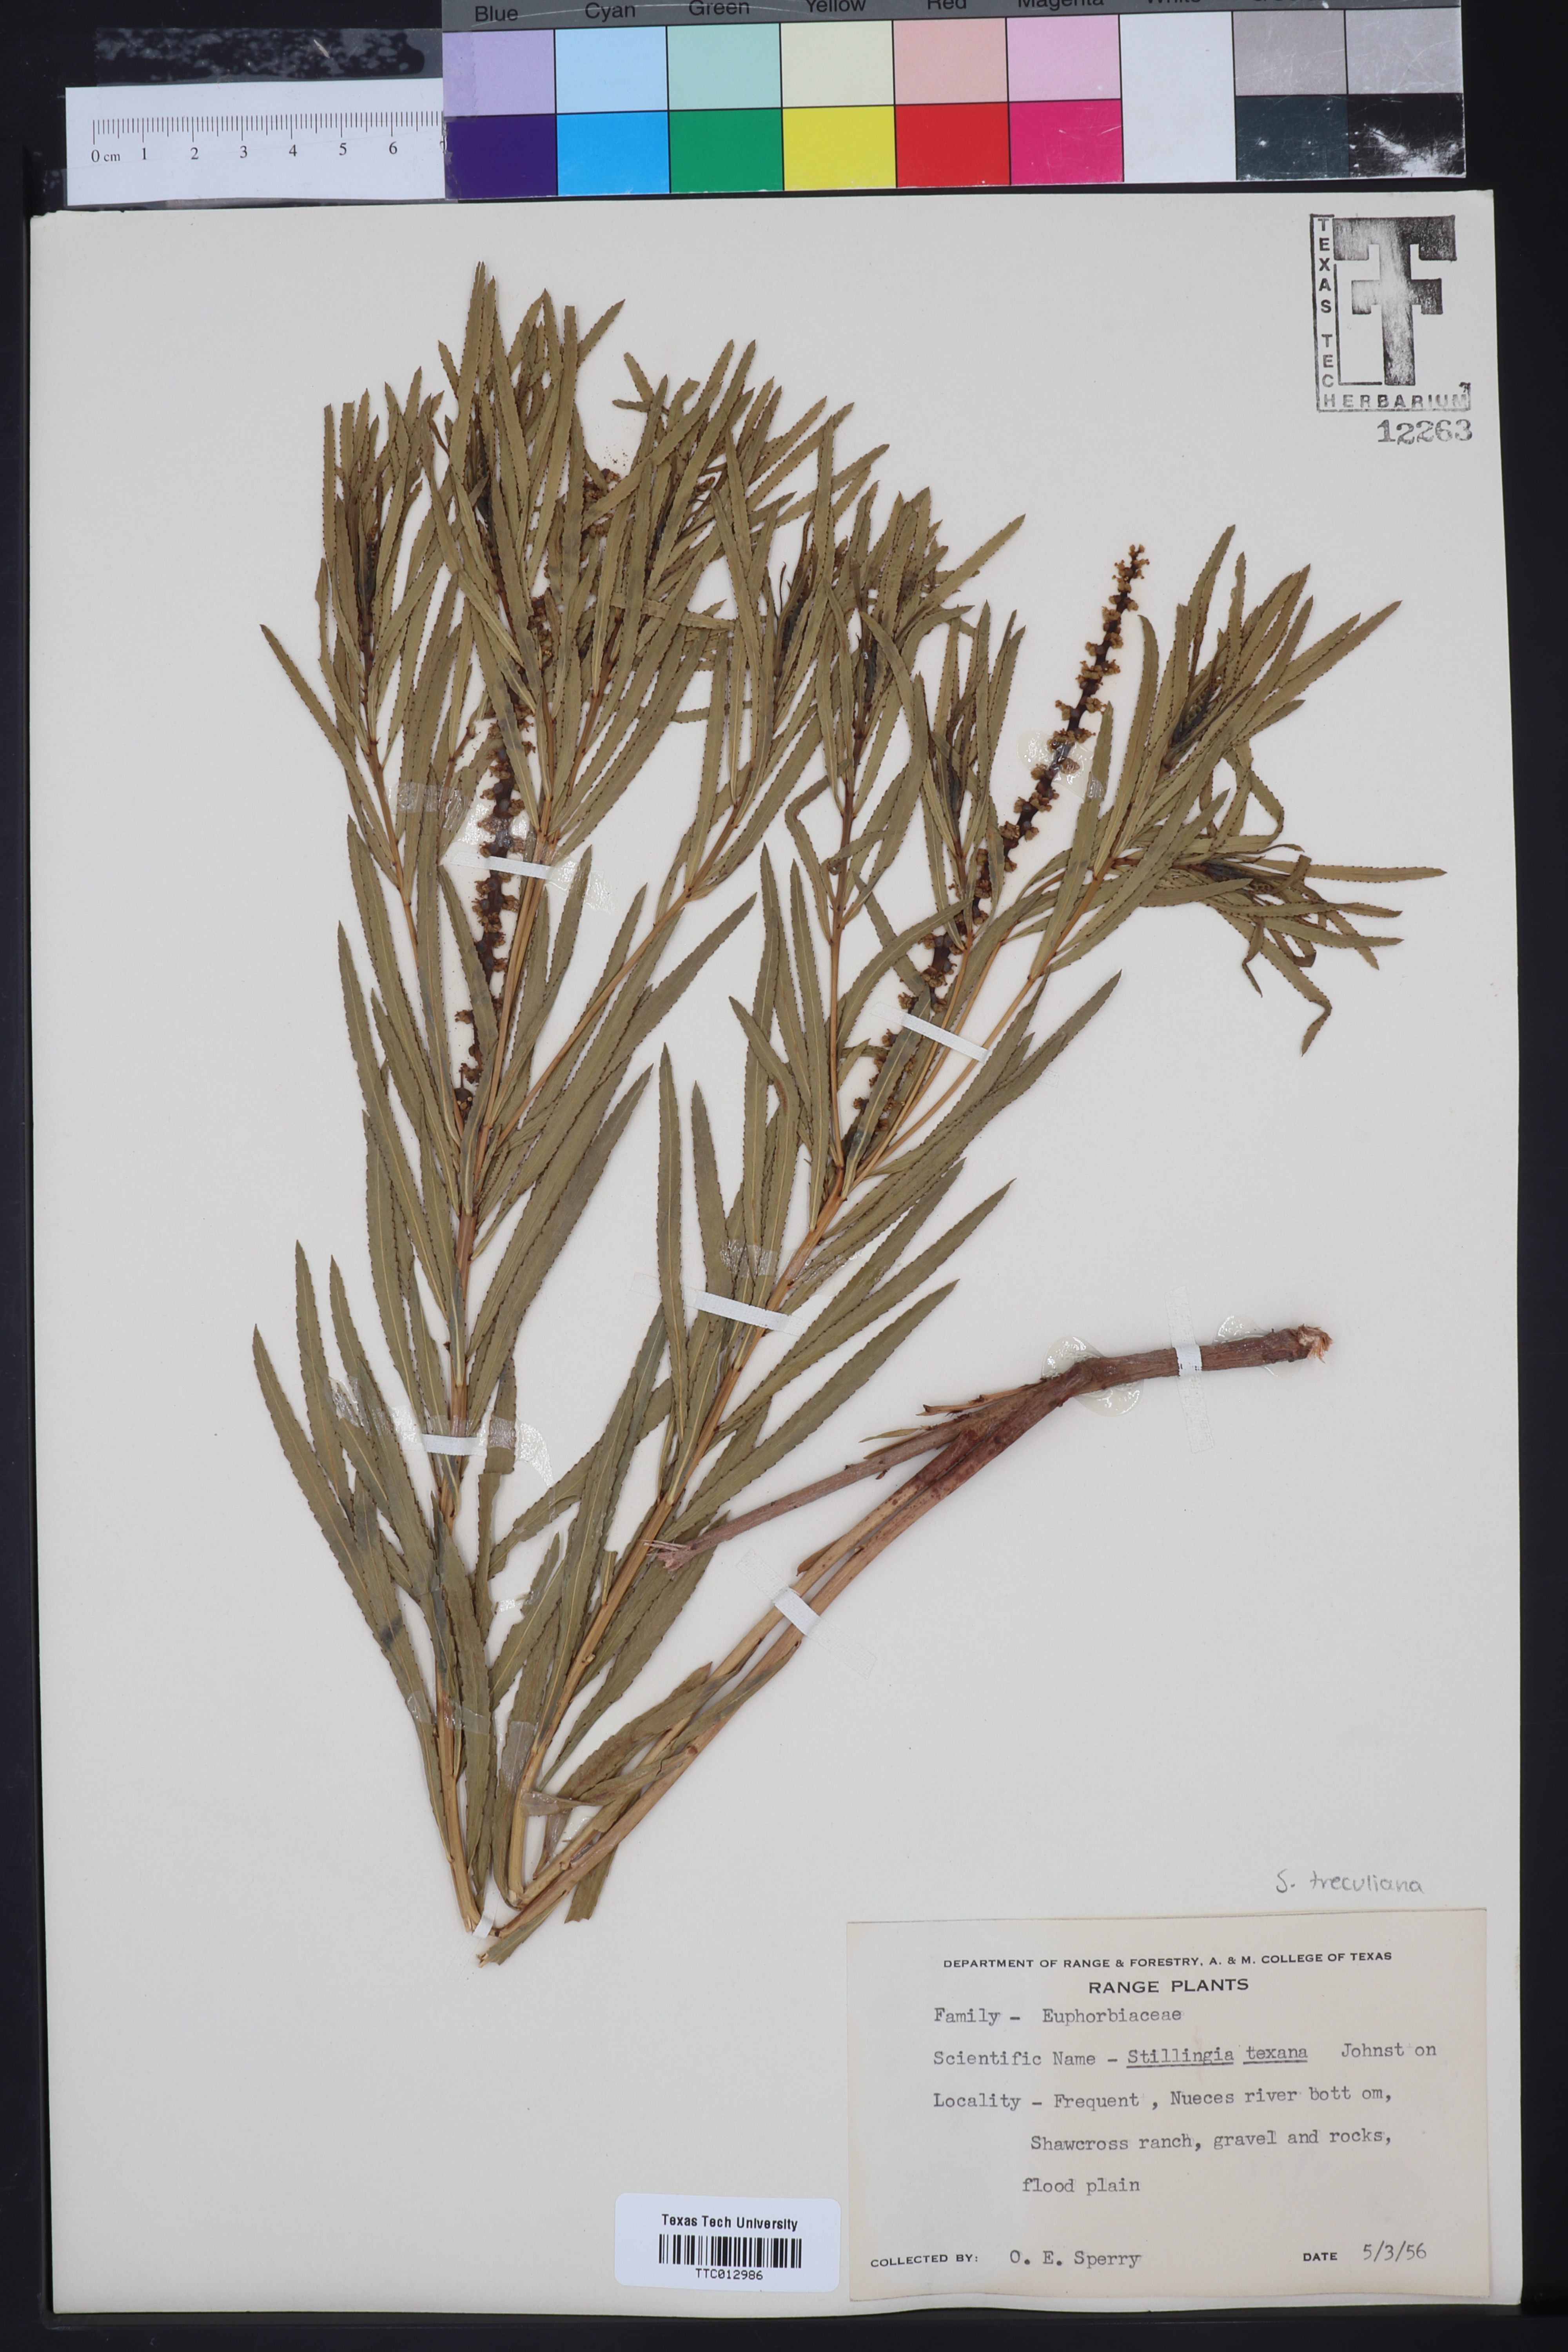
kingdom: Plantae
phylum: Tracheophyta
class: Magnoliopsida
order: Malpighiales
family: Euphorbiaceae
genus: Stillingia
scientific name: Stillingia texana
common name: Texas stillingia
